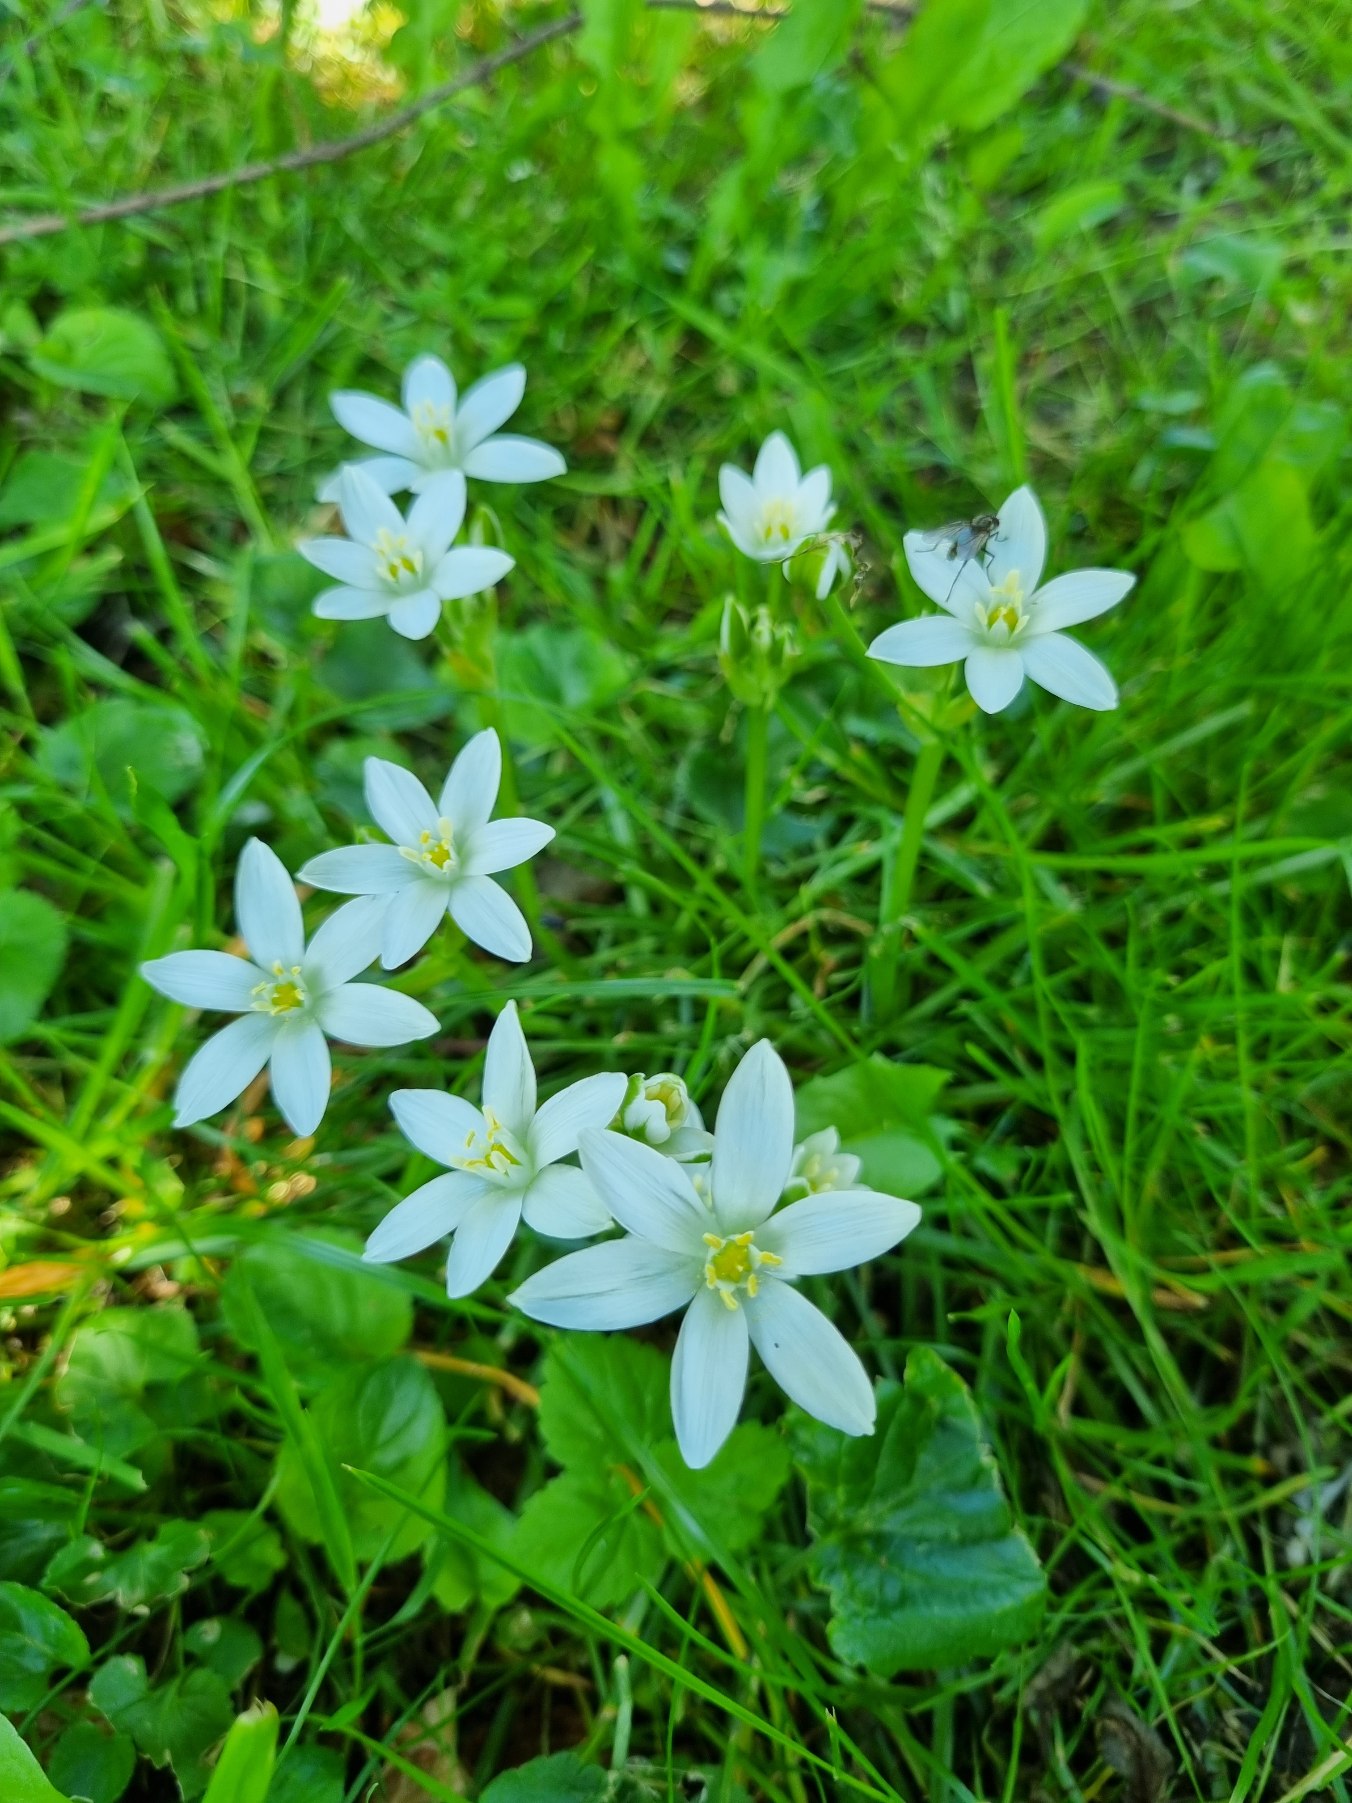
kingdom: Plantae
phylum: Tracheophyta
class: Liliopsida
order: Asparagales
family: Asparagaceae
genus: Ornithogalum
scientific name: Ornithogalum umbellatum
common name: Kost-fuglemælk
